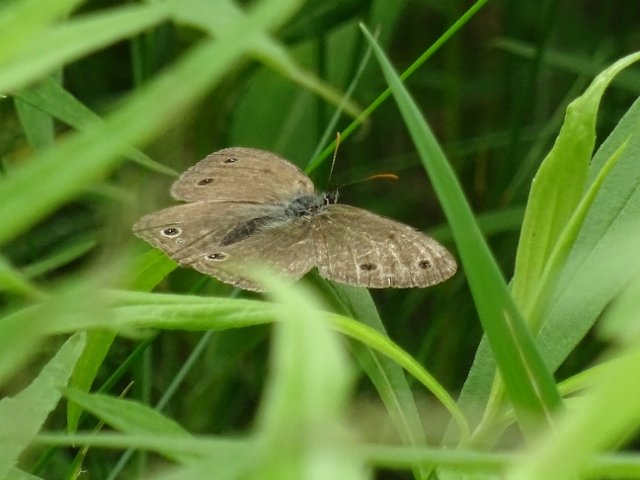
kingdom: Animalia
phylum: Arthropoda
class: Insecta
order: Lepidoptera
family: Nymphalidae
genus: Euptychia
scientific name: Euptychia cymela
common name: Little Wood Satyr
